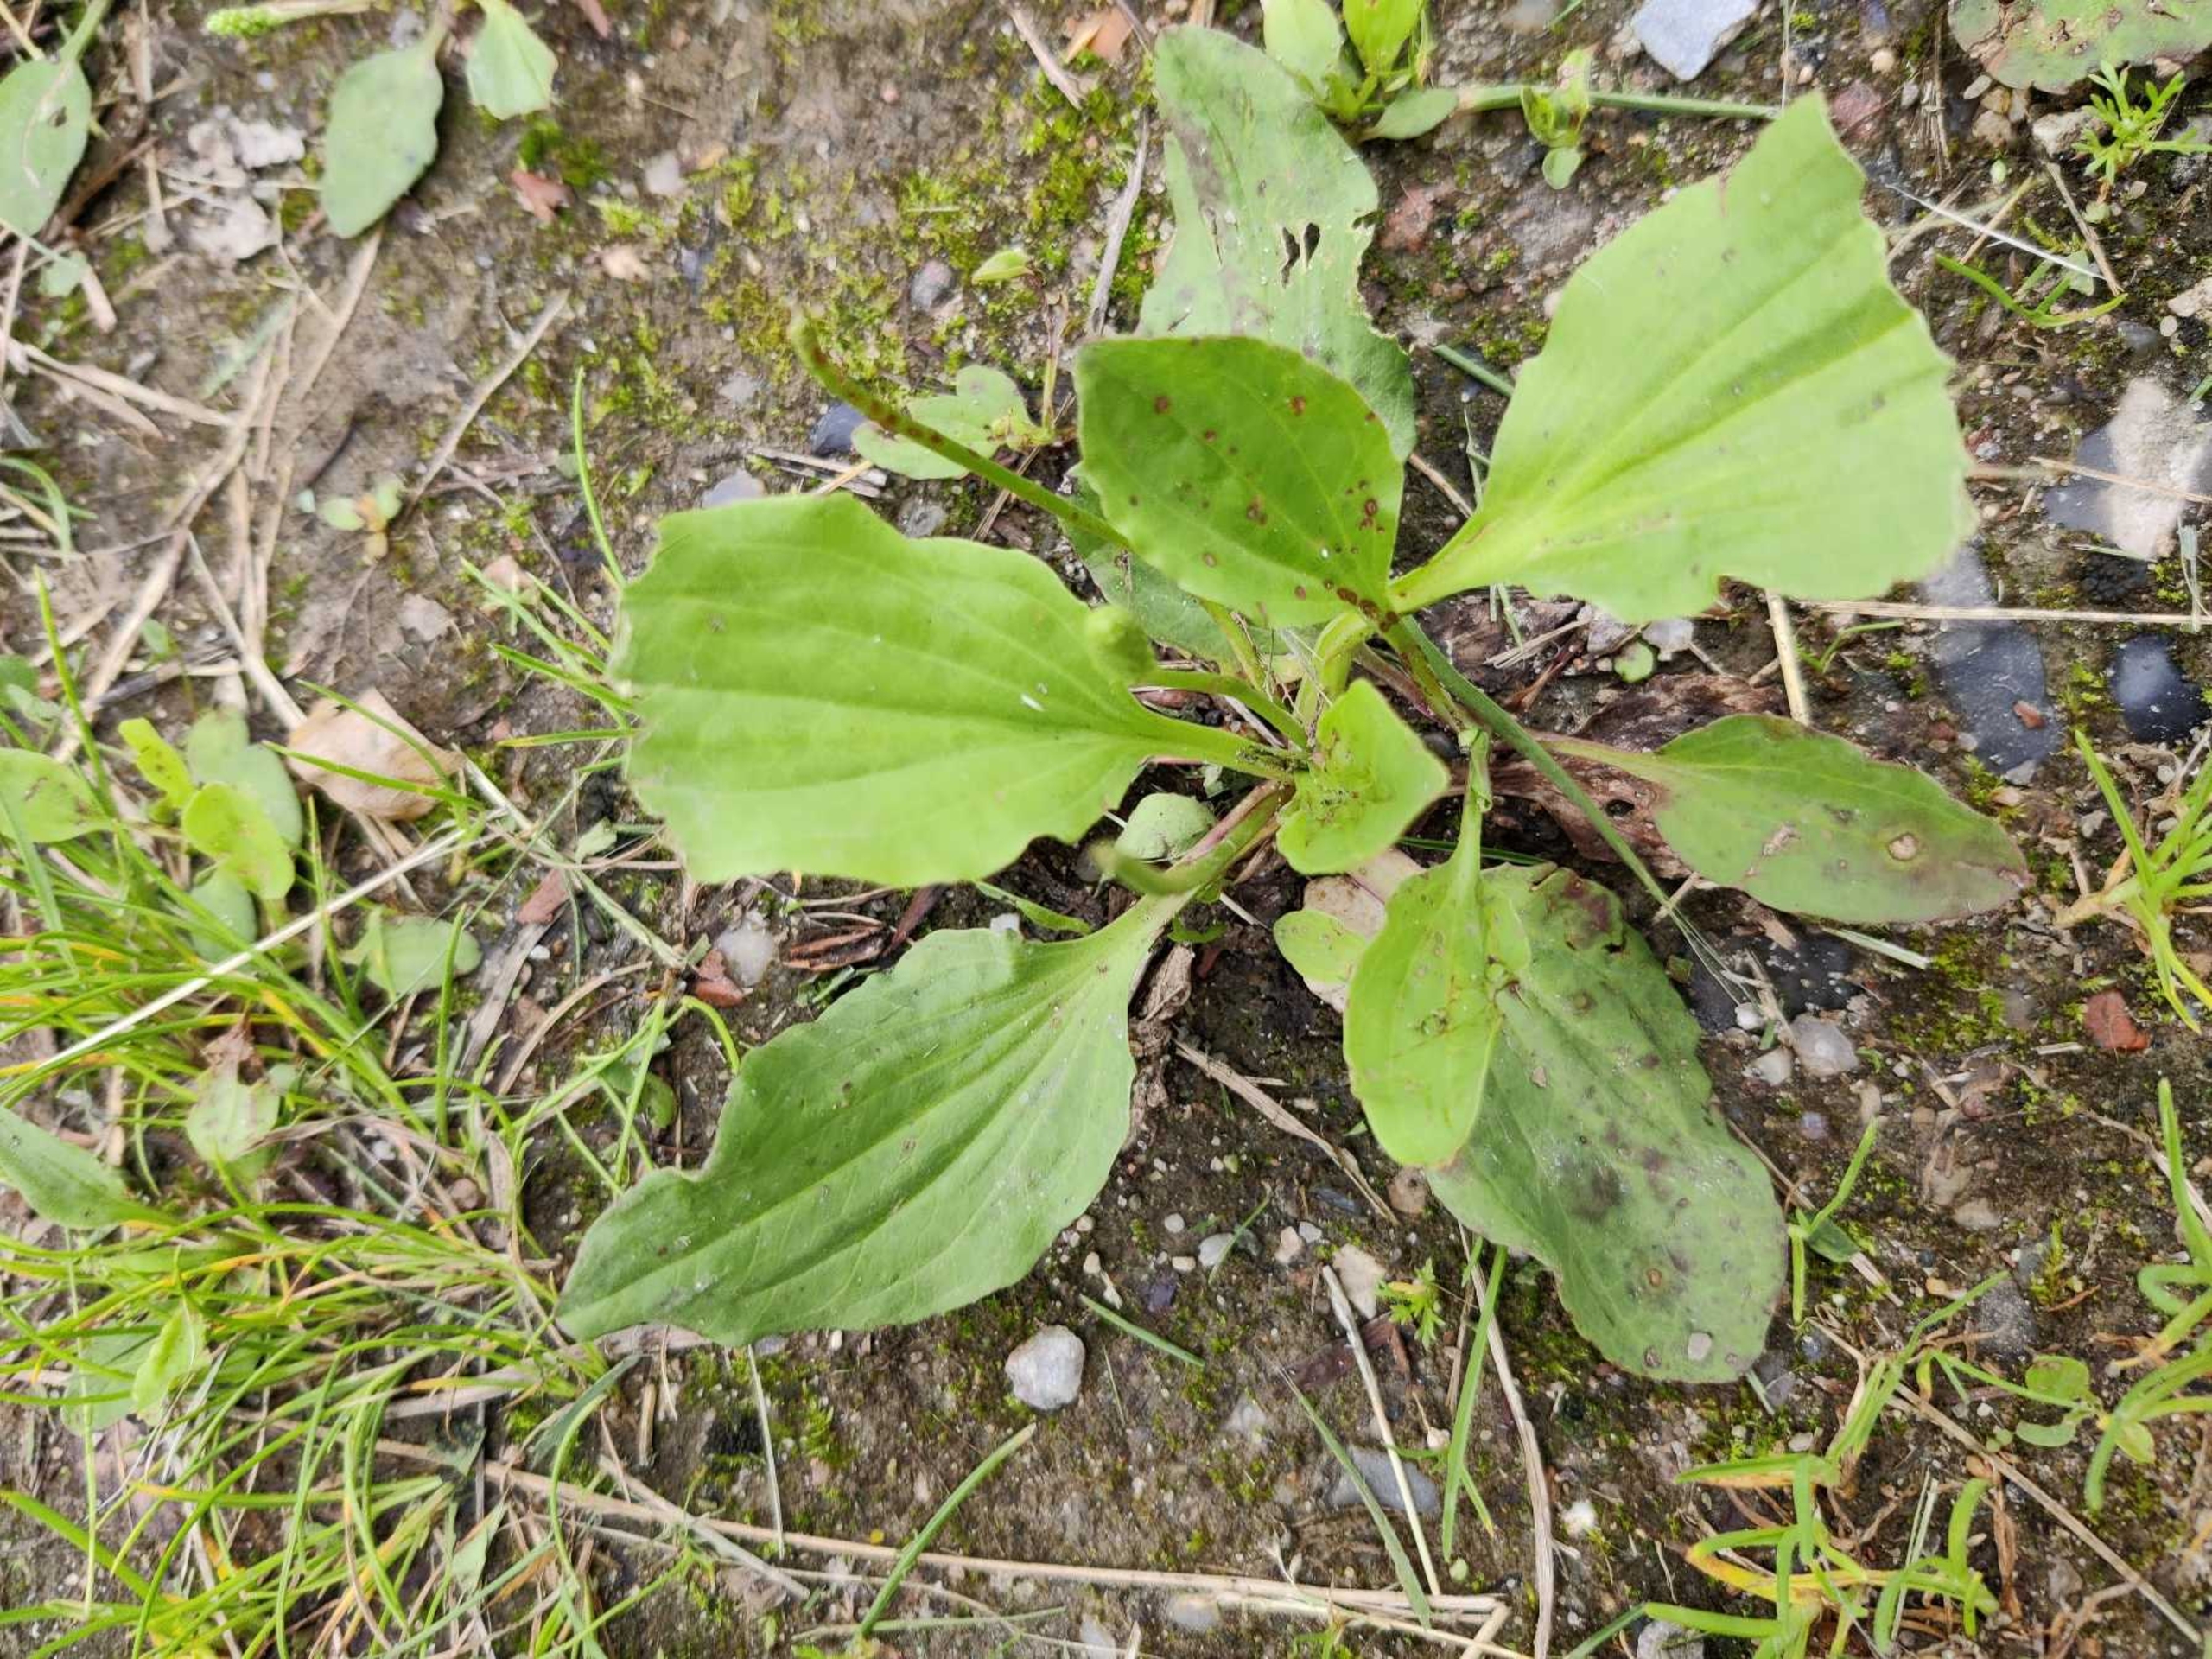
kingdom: Plantae
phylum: Tracheophyta
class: Magnoliopsida
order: Lamiales
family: Plantaginaceae
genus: Plantago
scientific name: Plantago major
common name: Glat vejbred
